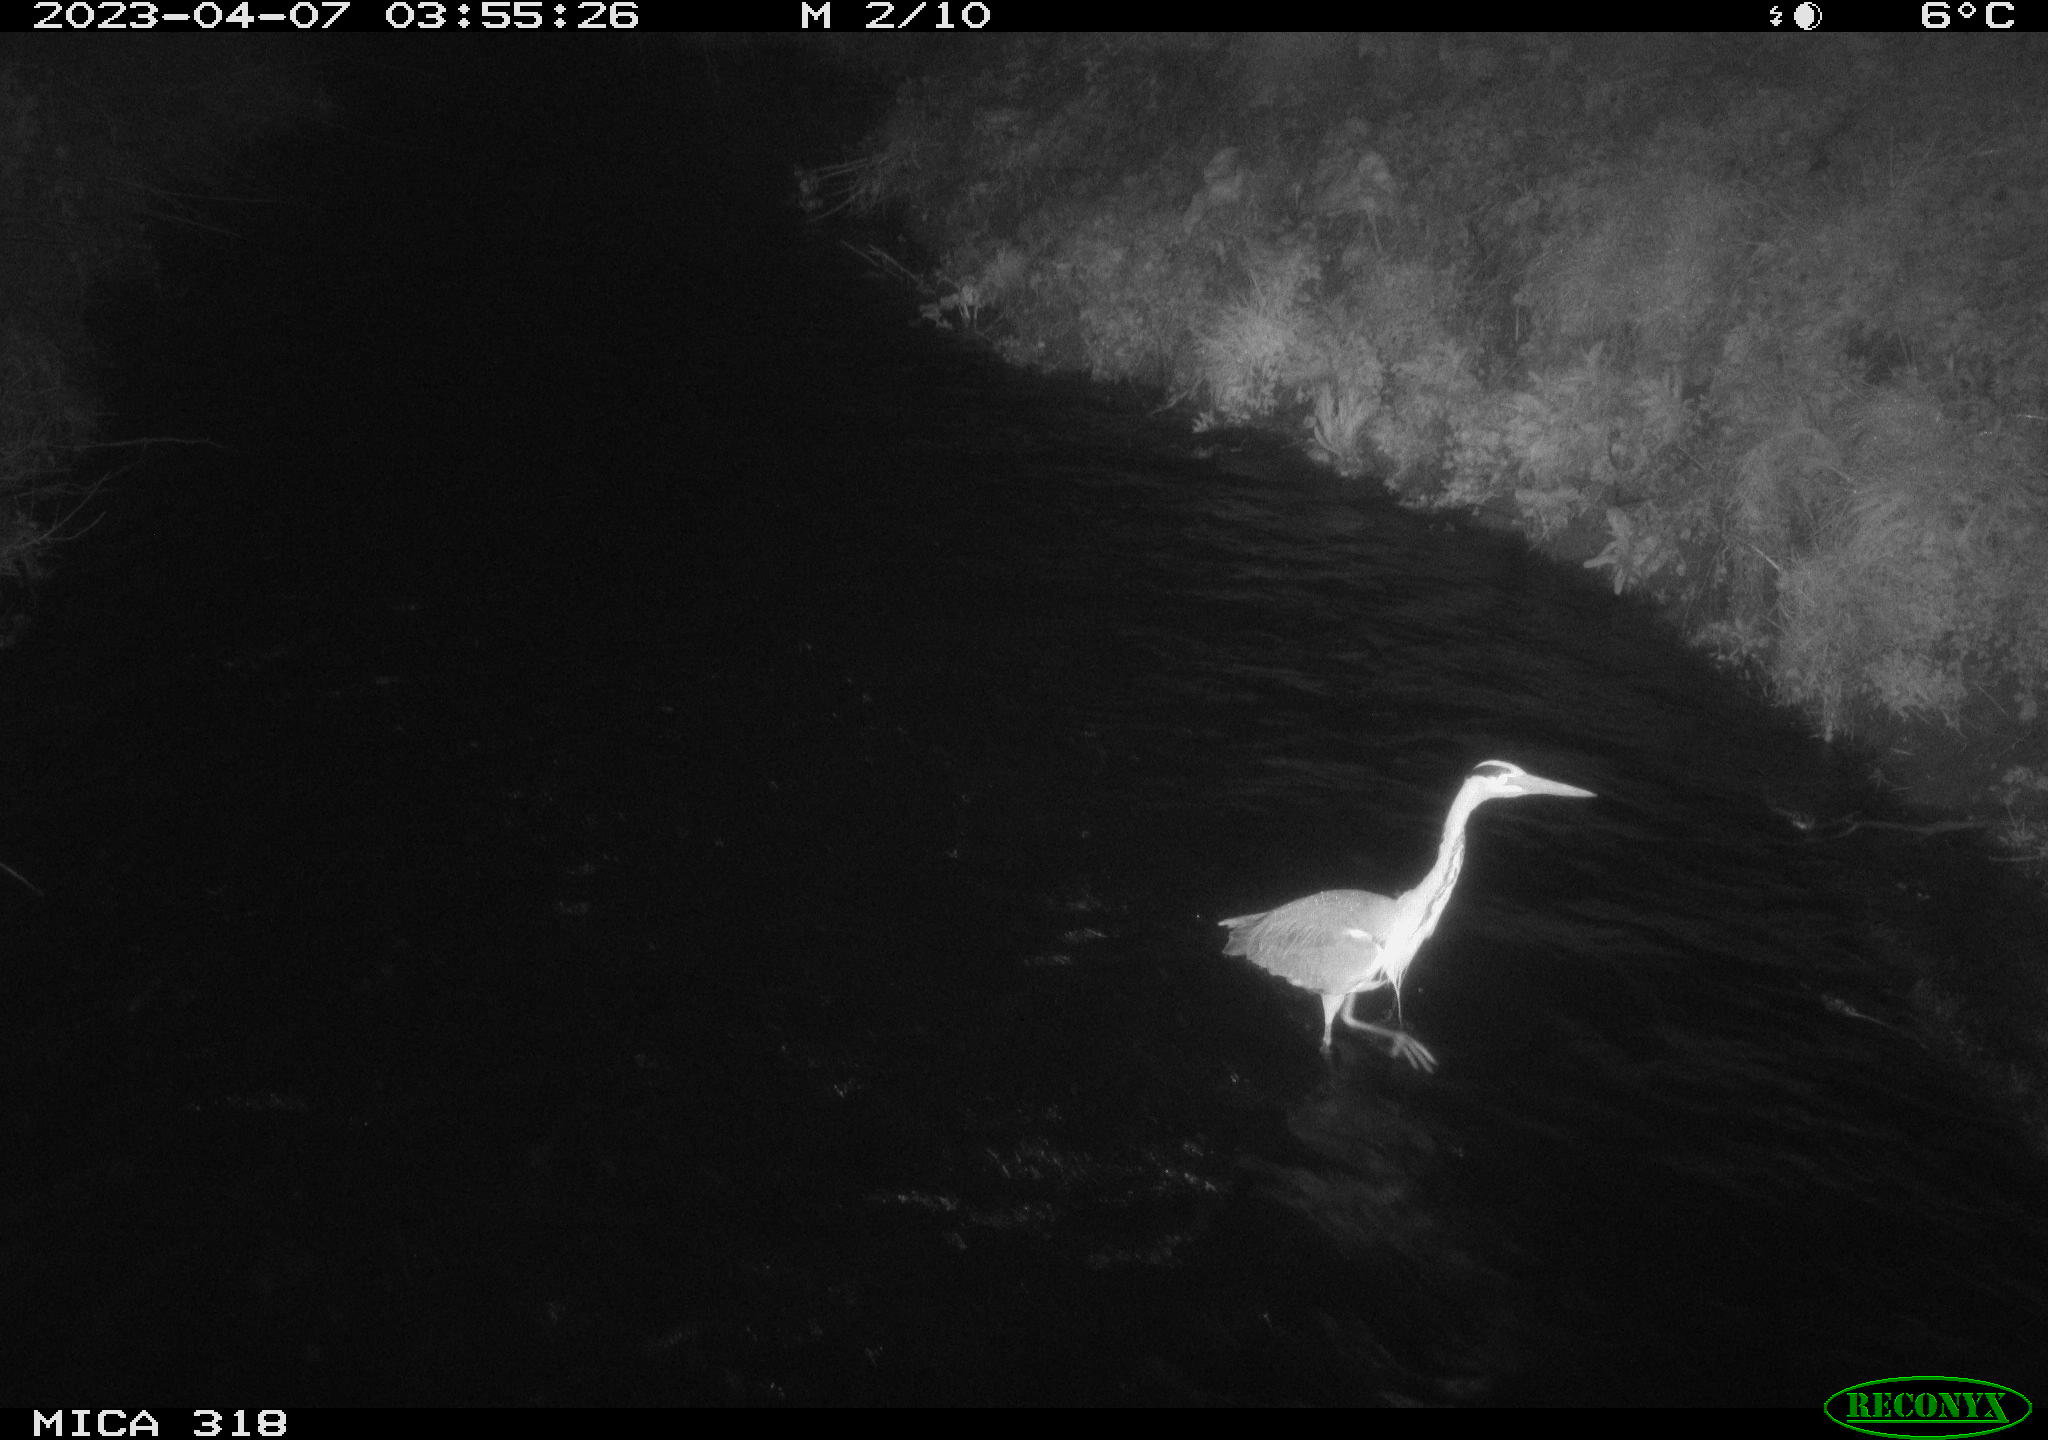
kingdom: Animalia
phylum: Chordata
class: Aves
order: Pelecaniformes
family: Ardeidae
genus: Ardea
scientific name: Ardea
